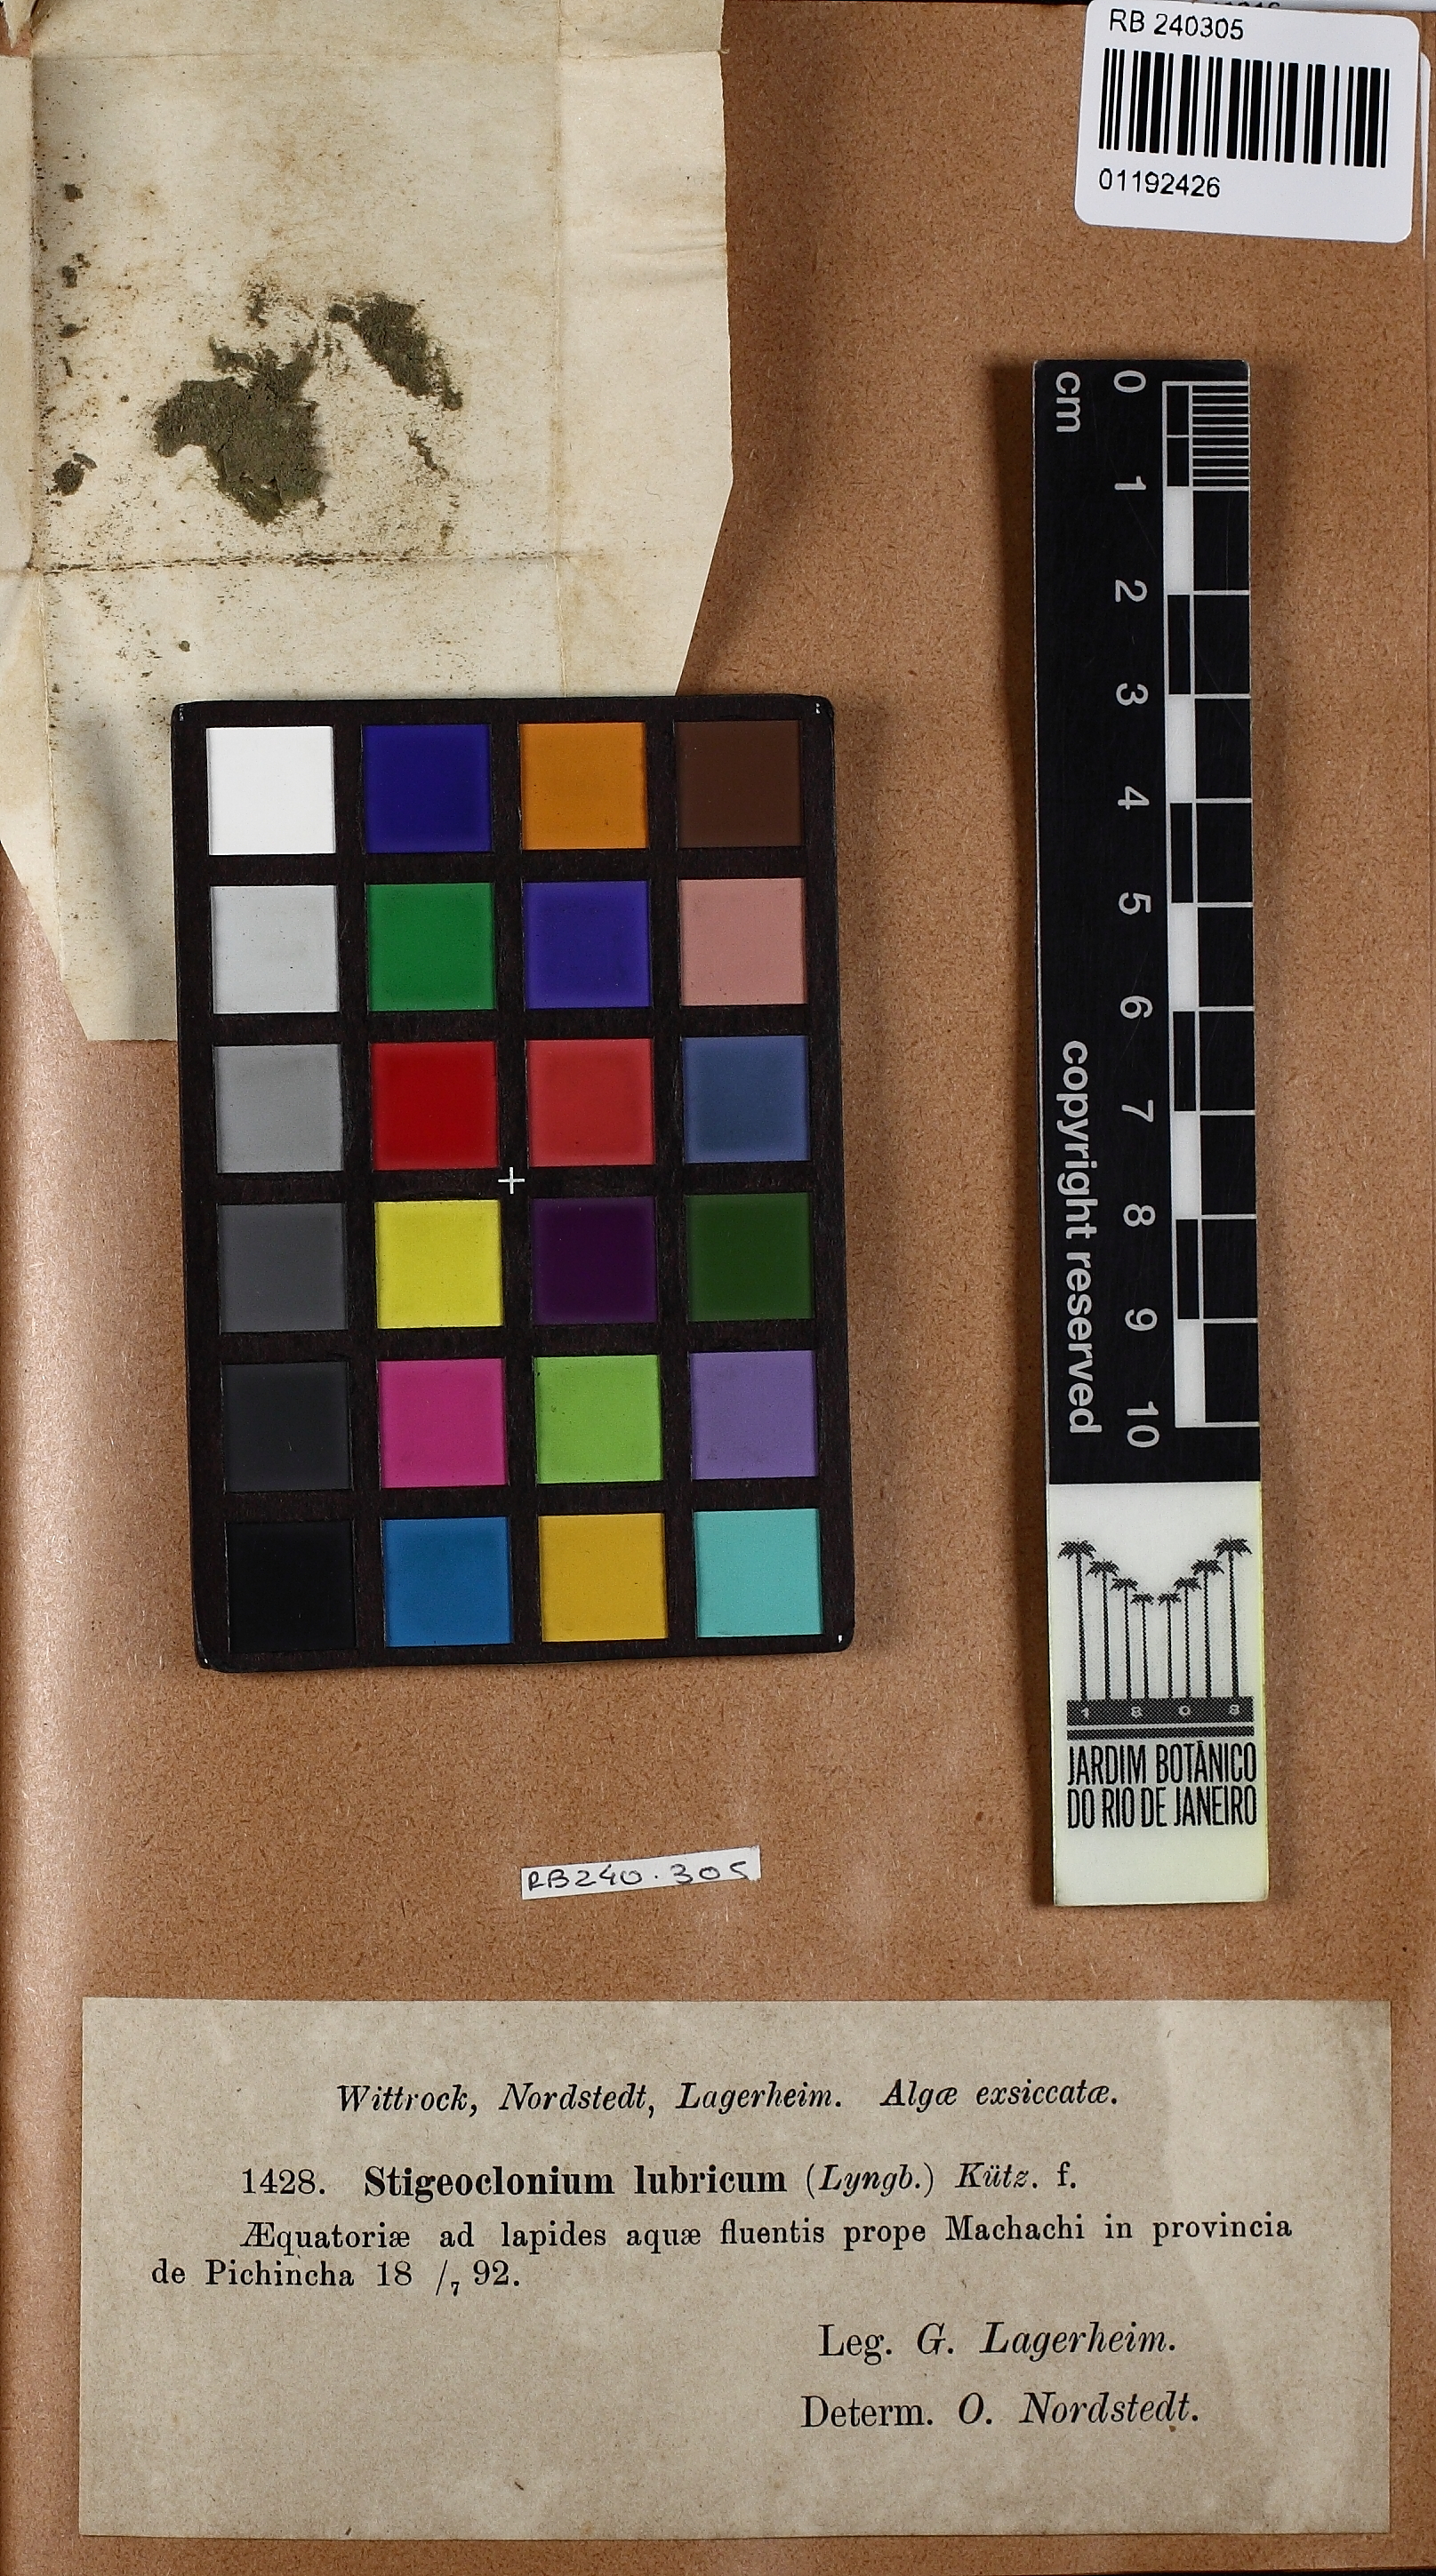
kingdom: Plantae
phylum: Chlorophyta
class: Chlorophyceae
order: Chaetophorales
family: Chaetophoraceae
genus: Stigeoclonium
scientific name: Stigeoclonium lubricum
